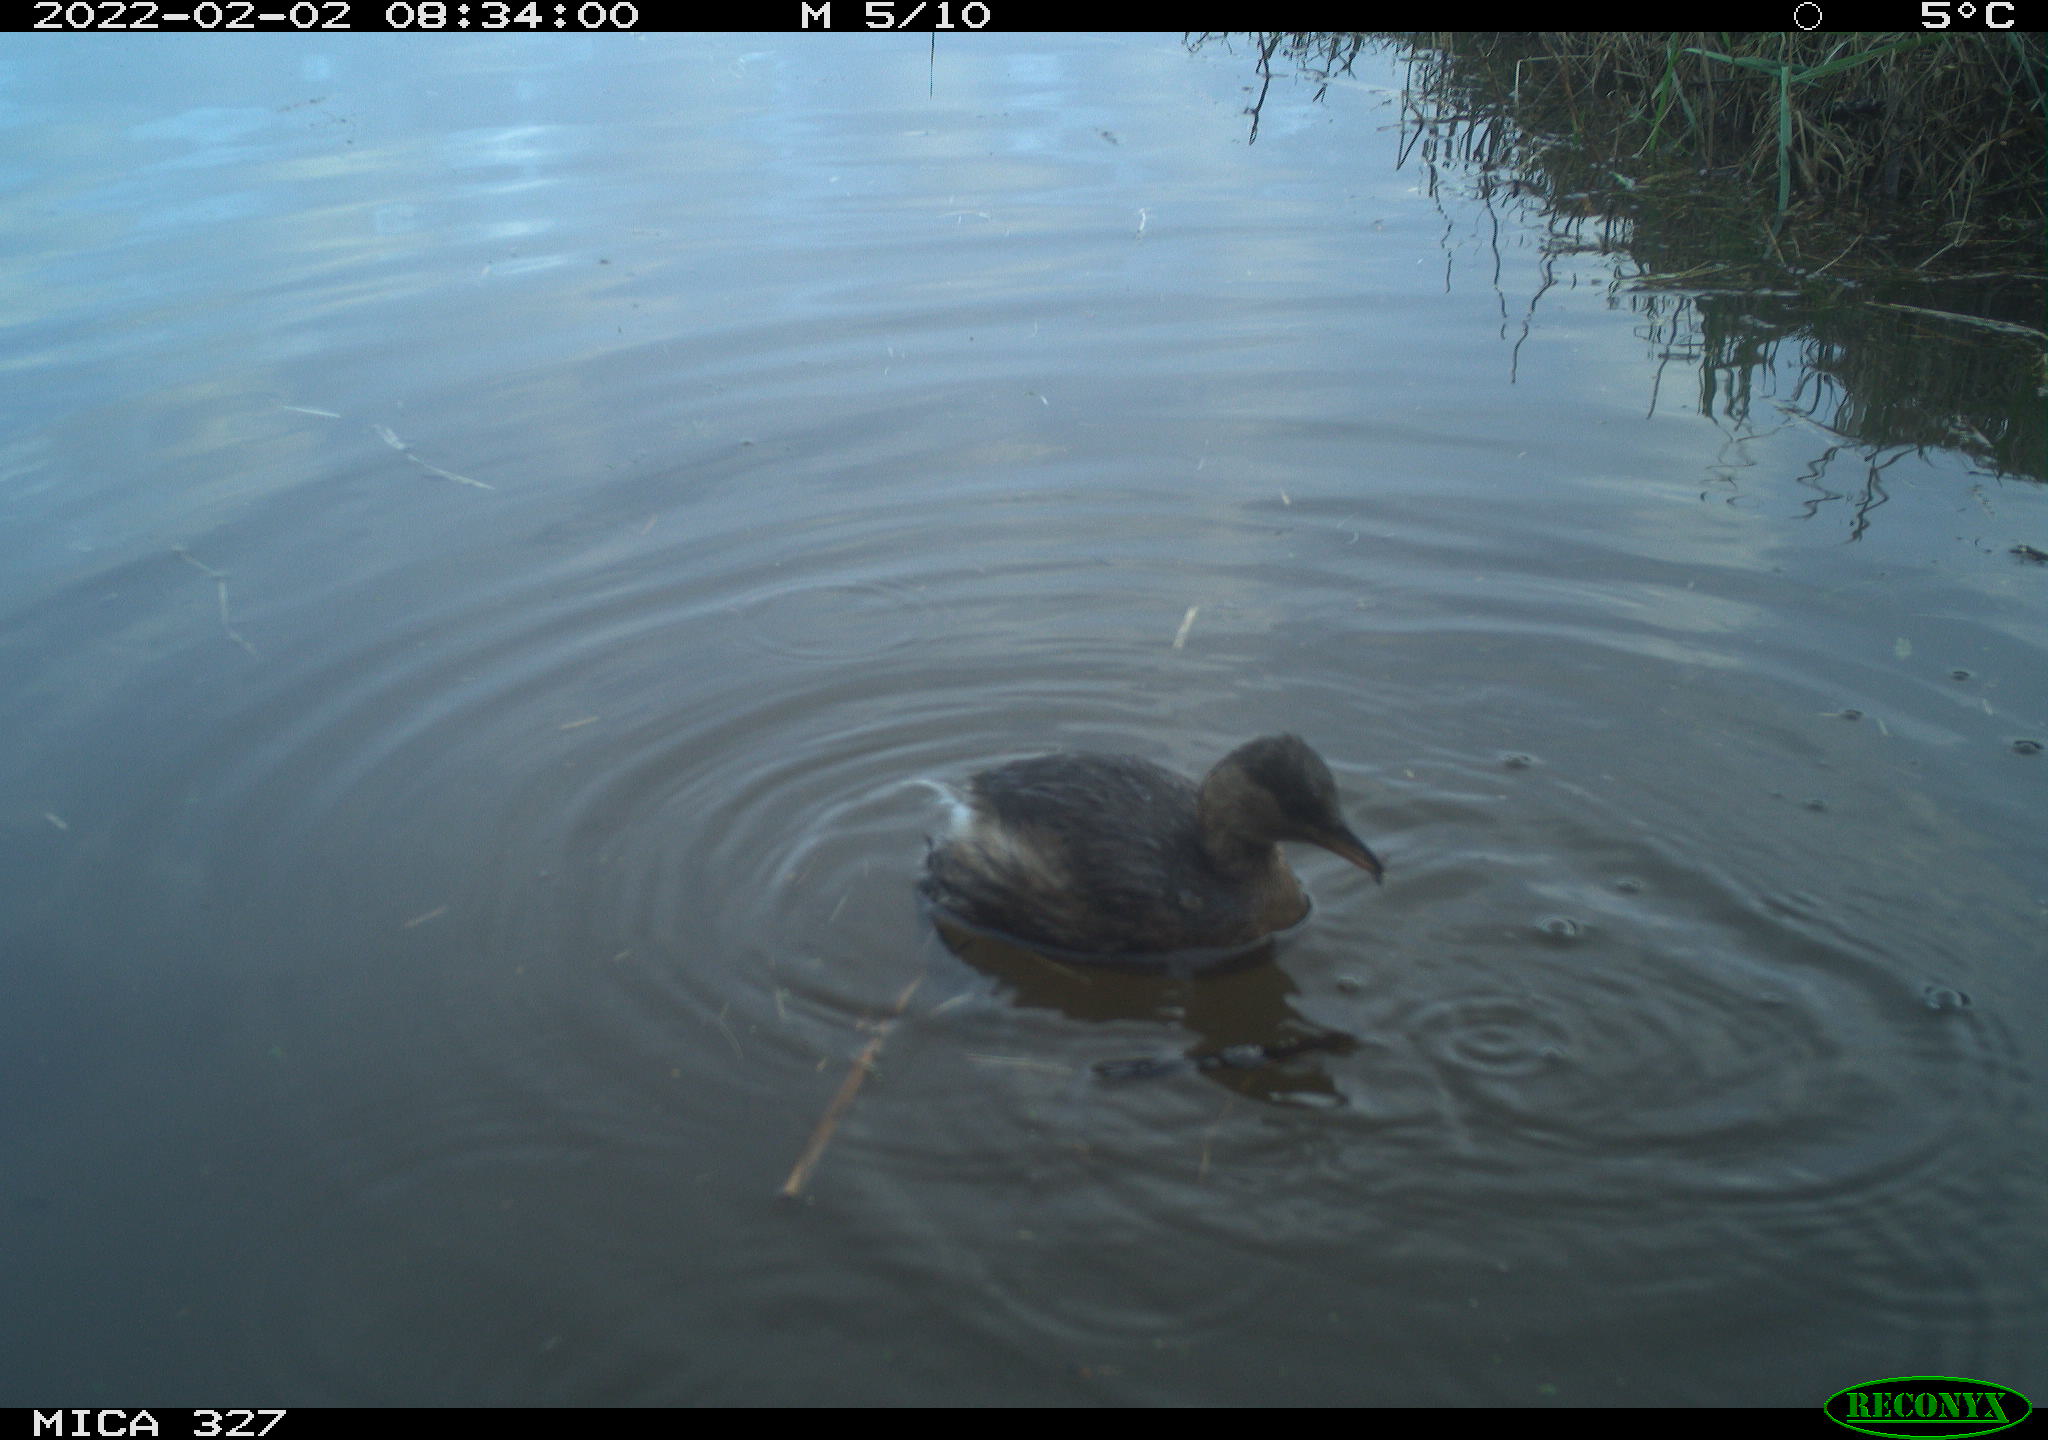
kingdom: Animalia
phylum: Chordata
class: Aves
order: Podicipediformes
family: Podicipedidae
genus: Tachybaptus
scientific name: Tachybaptus ruficollis
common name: Little grebe
